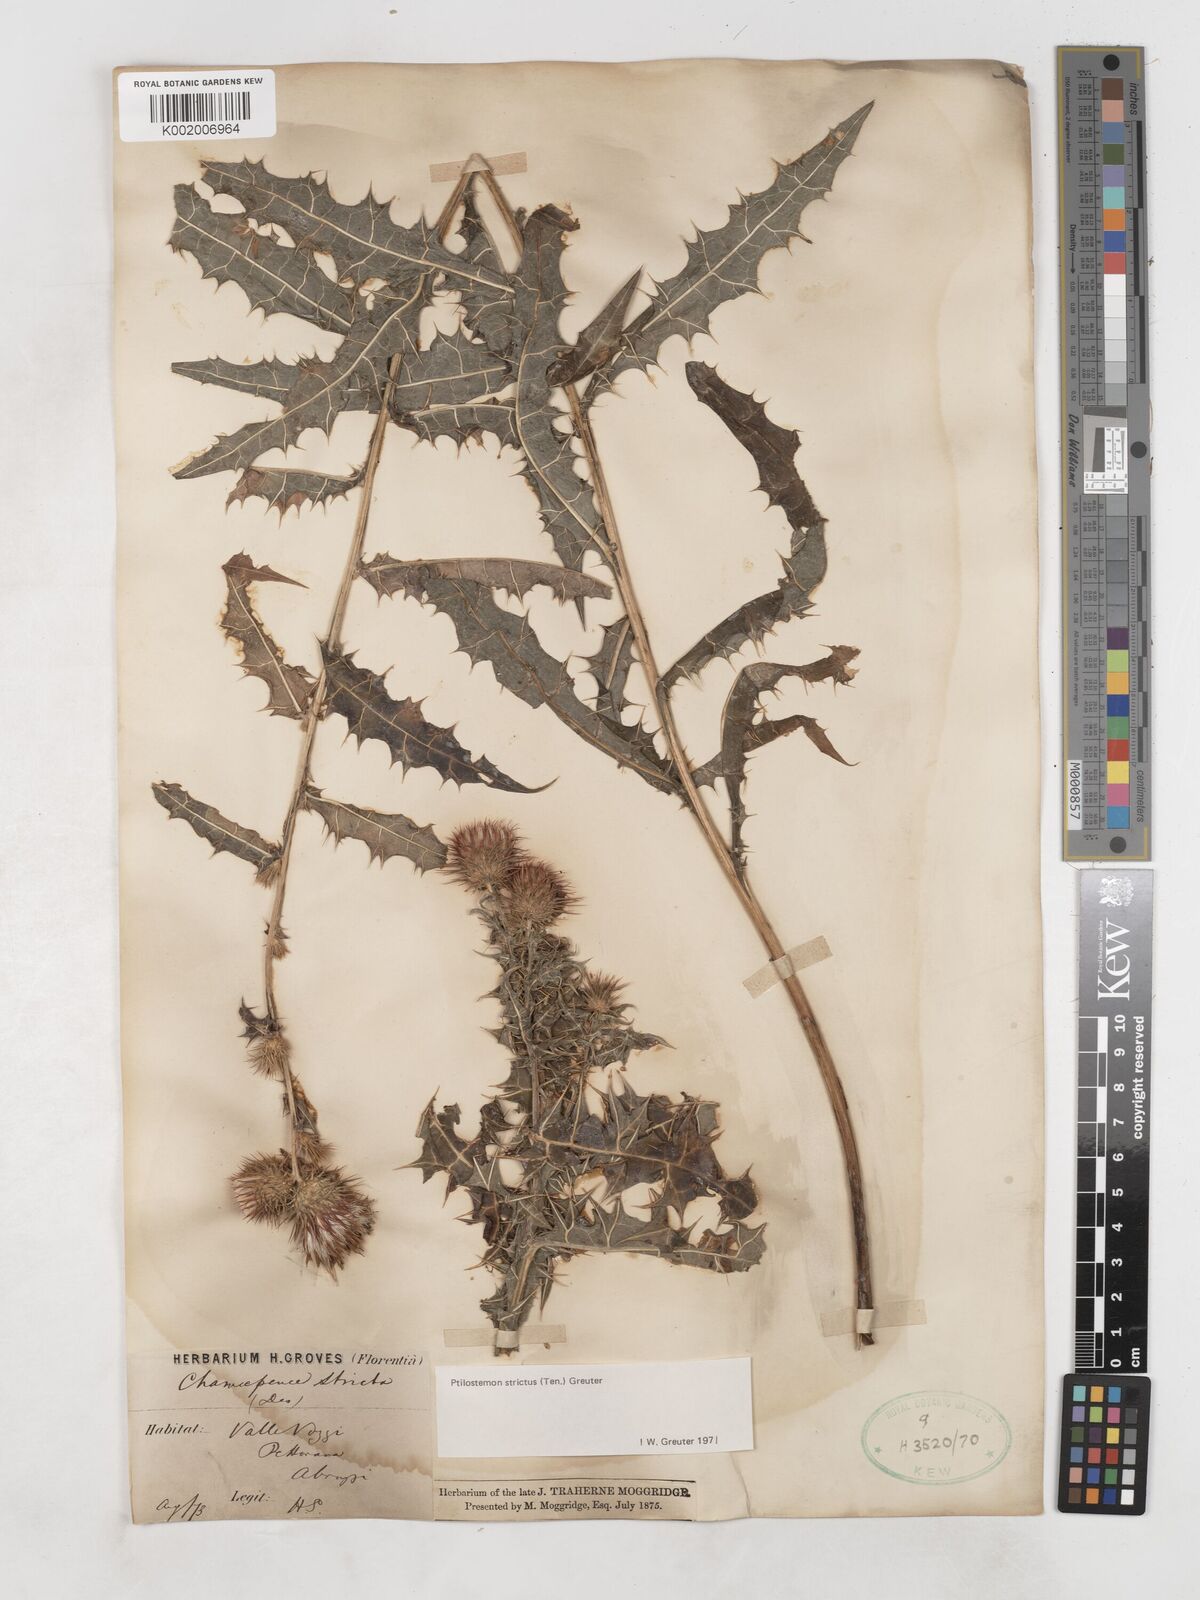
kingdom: Plantae
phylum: Tracheophyta
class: Magnoliopsida
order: Asterales
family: Asteraceae
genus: Ptilostemon
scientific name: Ptilostemon strictus
